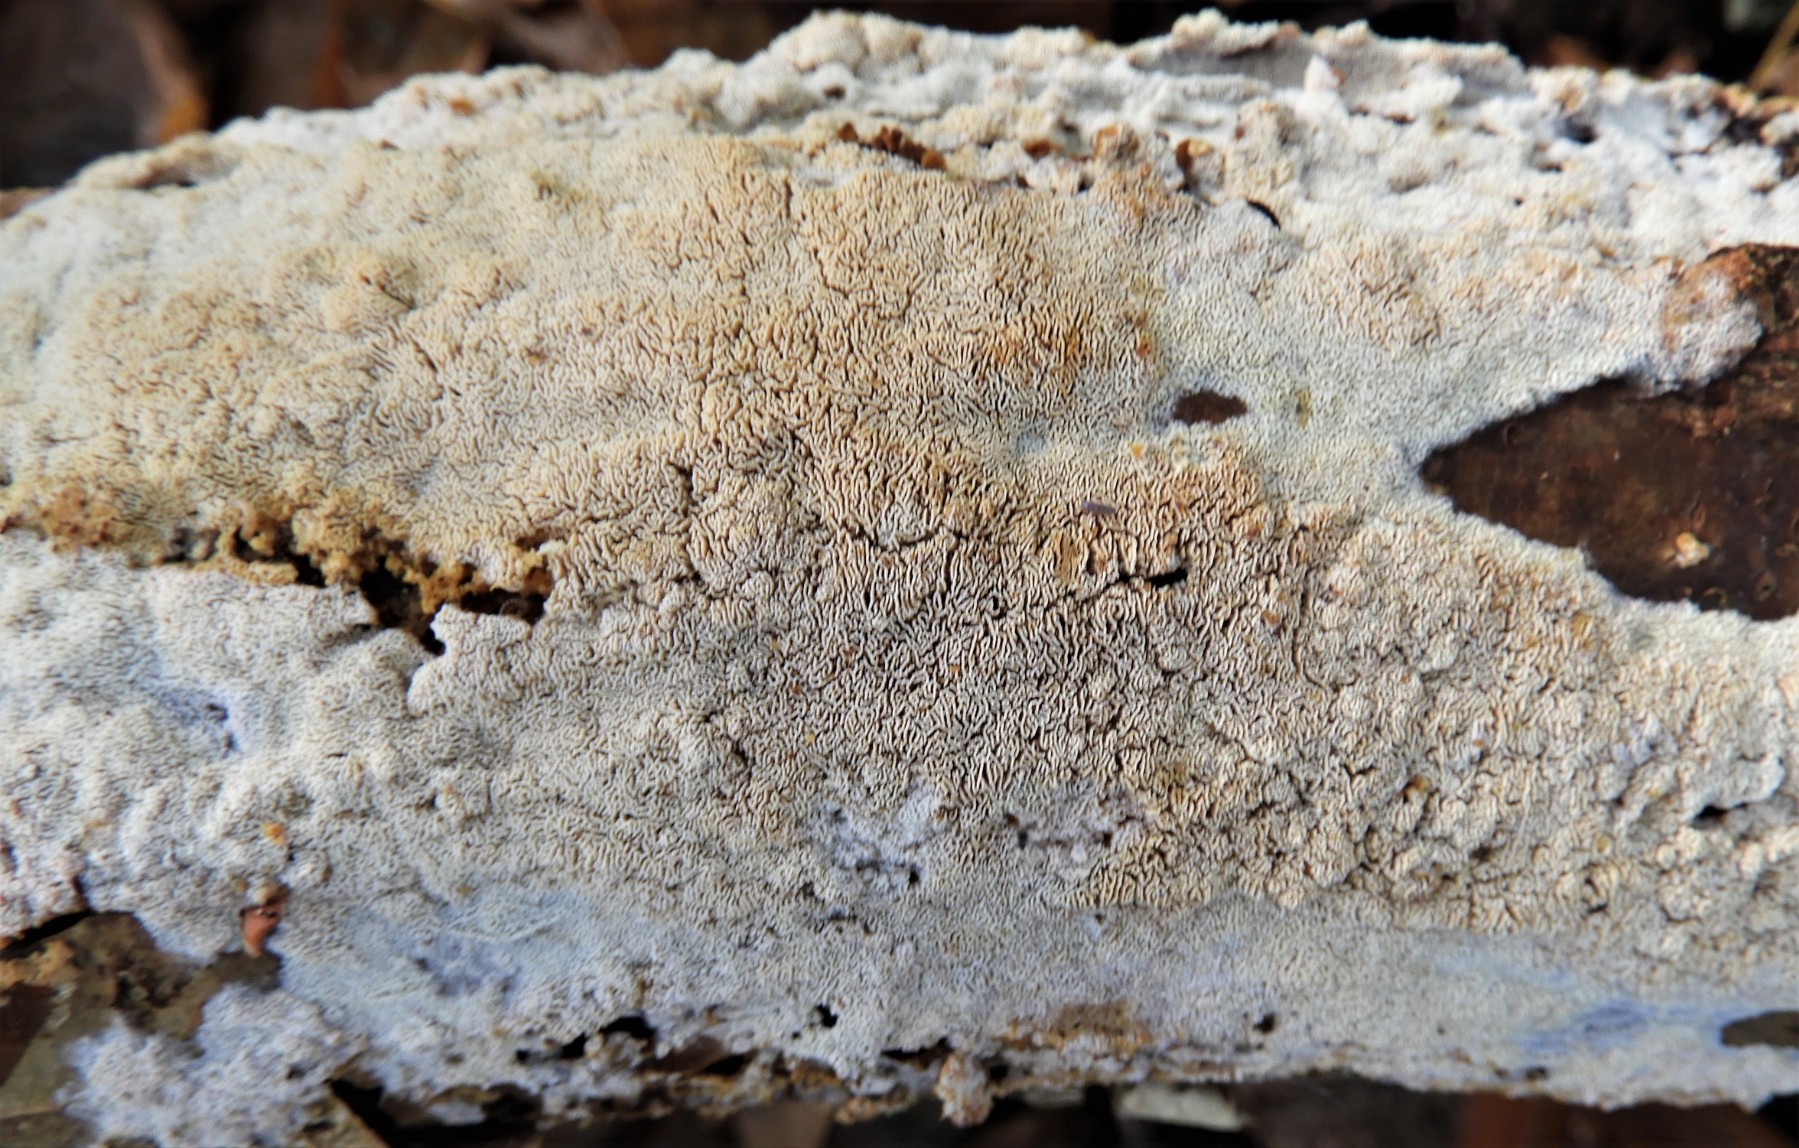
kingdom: Fungi
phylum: Basidiomycota
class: Agaricomycetes
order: Hymenochaetales
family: Schizoporaceae
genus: Xylodon
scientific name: Xylodon subtropicus
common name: labyrint-tandsvamp
